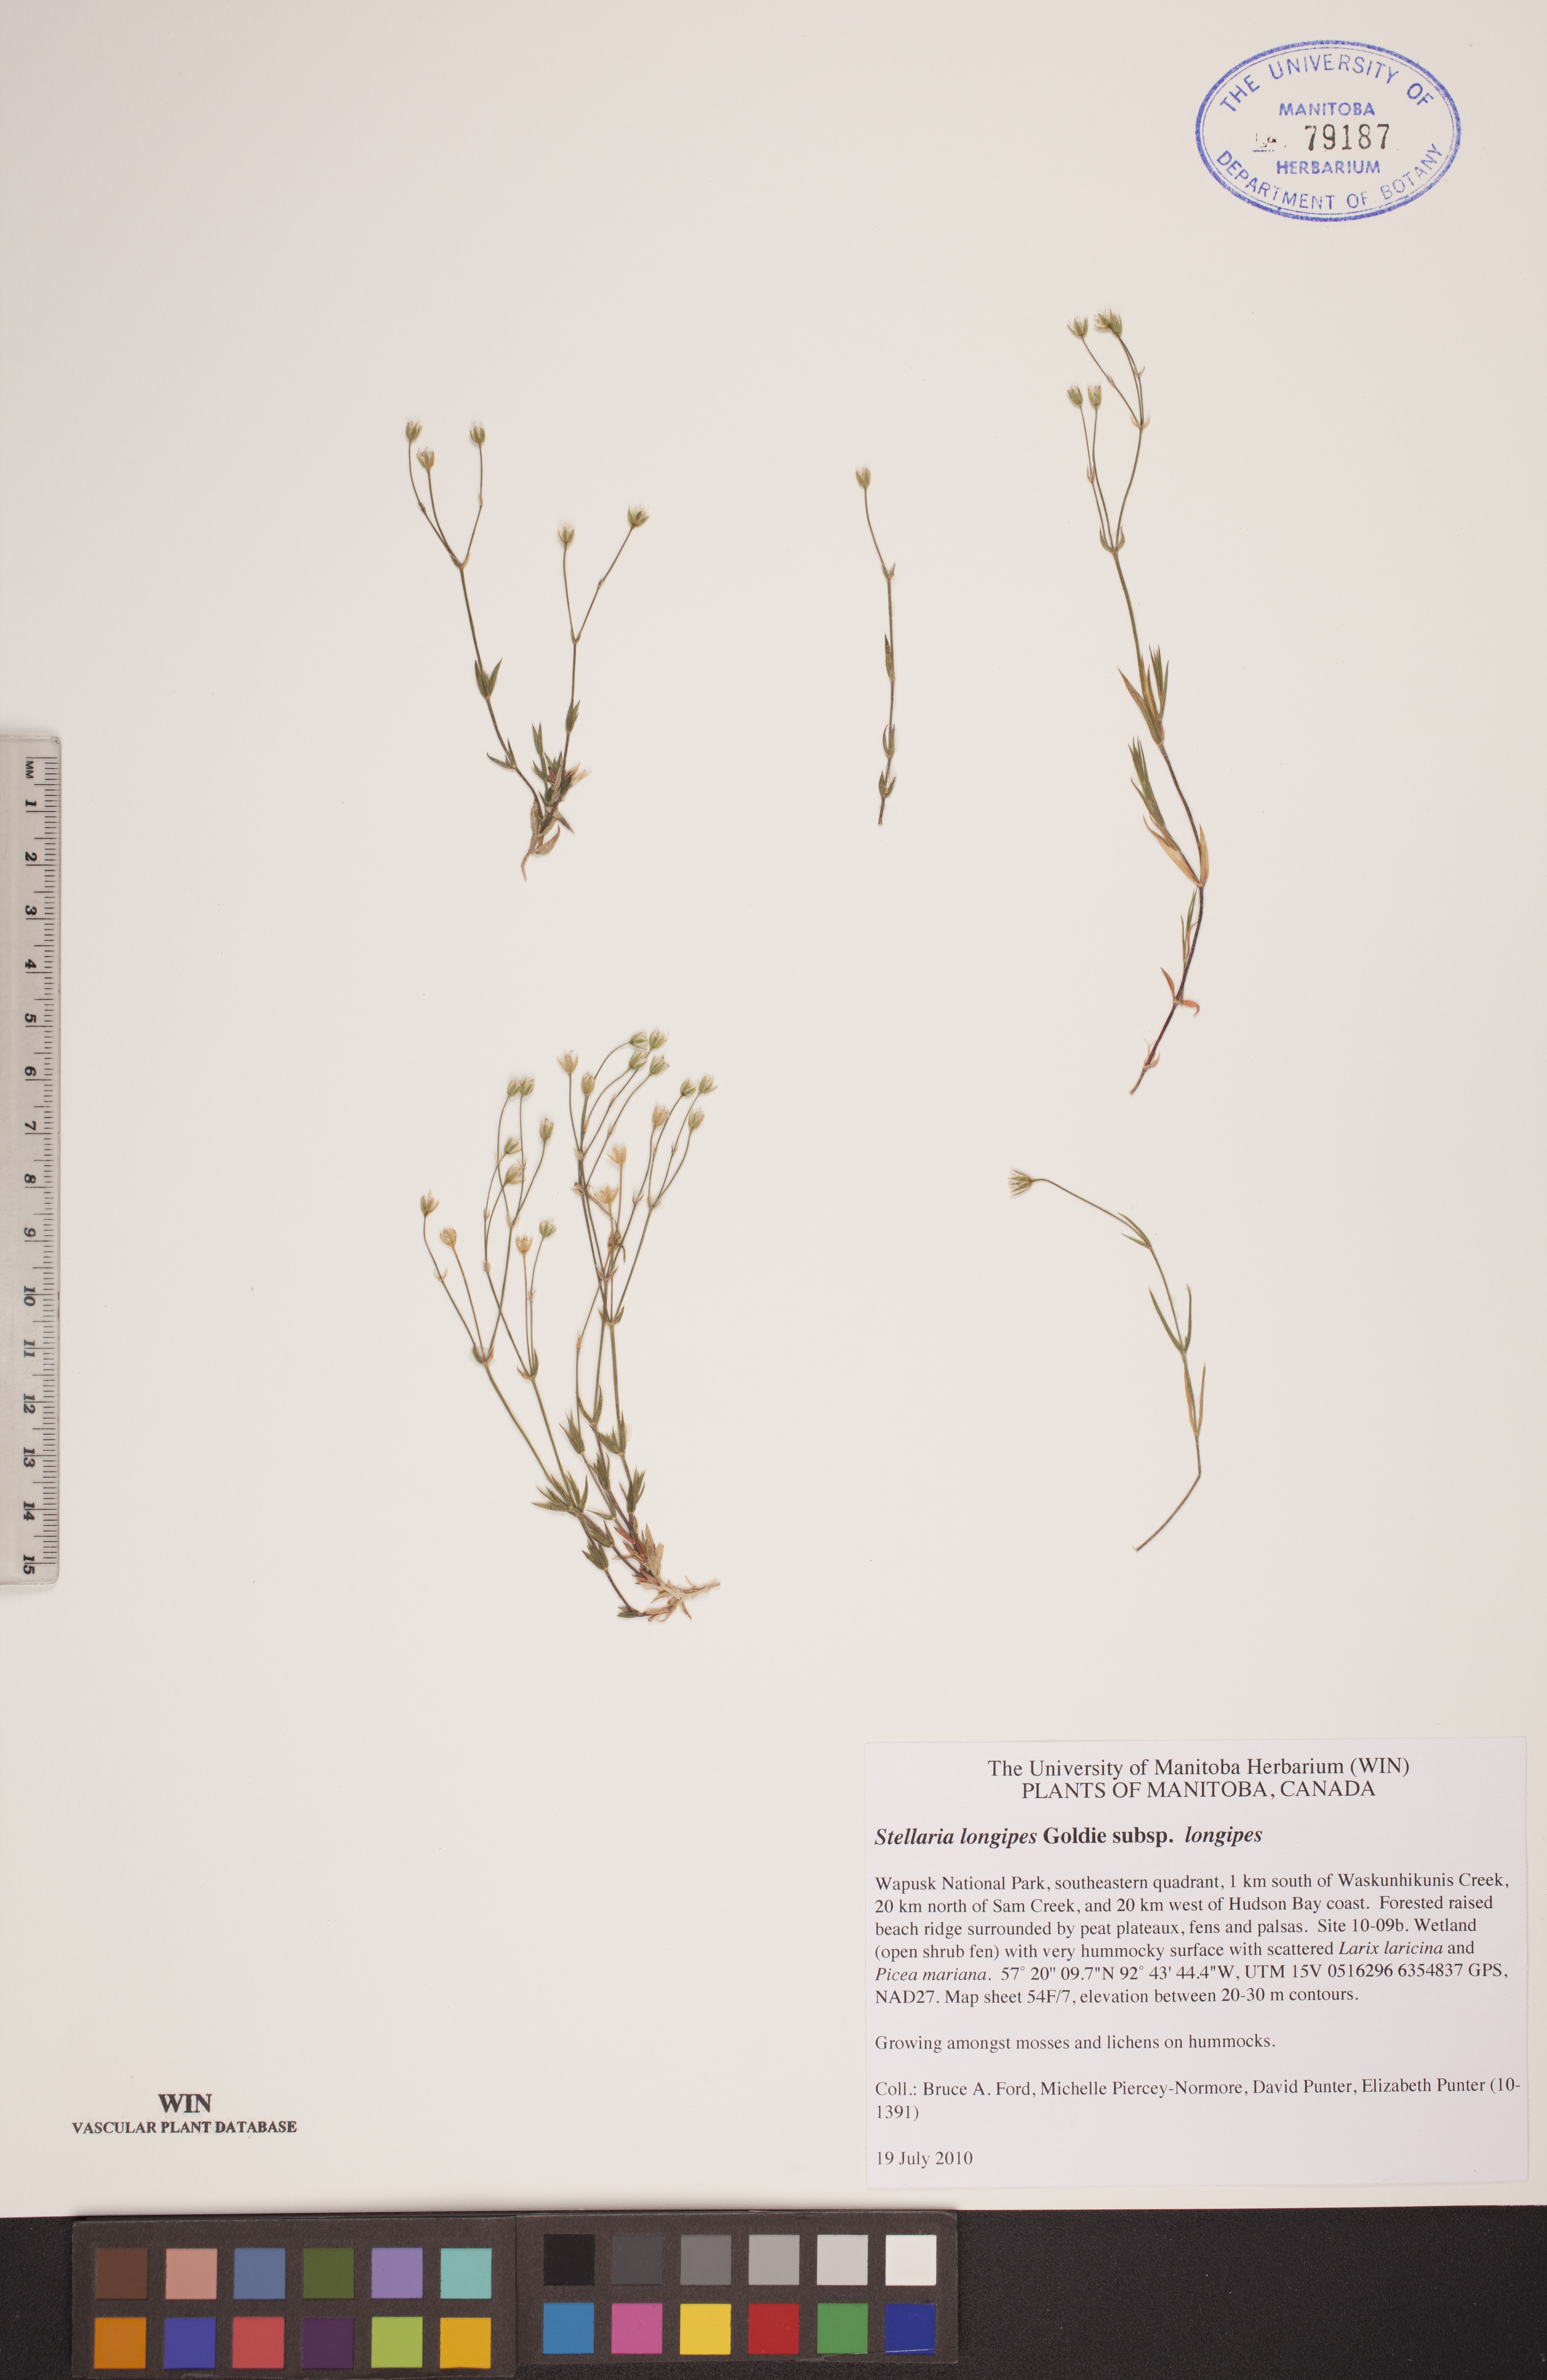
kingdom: Plantae
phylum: Tracheophyta
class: Magnoliopsida
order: Caryophyllales
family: Caryophyllaceae
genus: Stellaria
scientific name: Stellaria longipes
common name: Goldie's starwort
